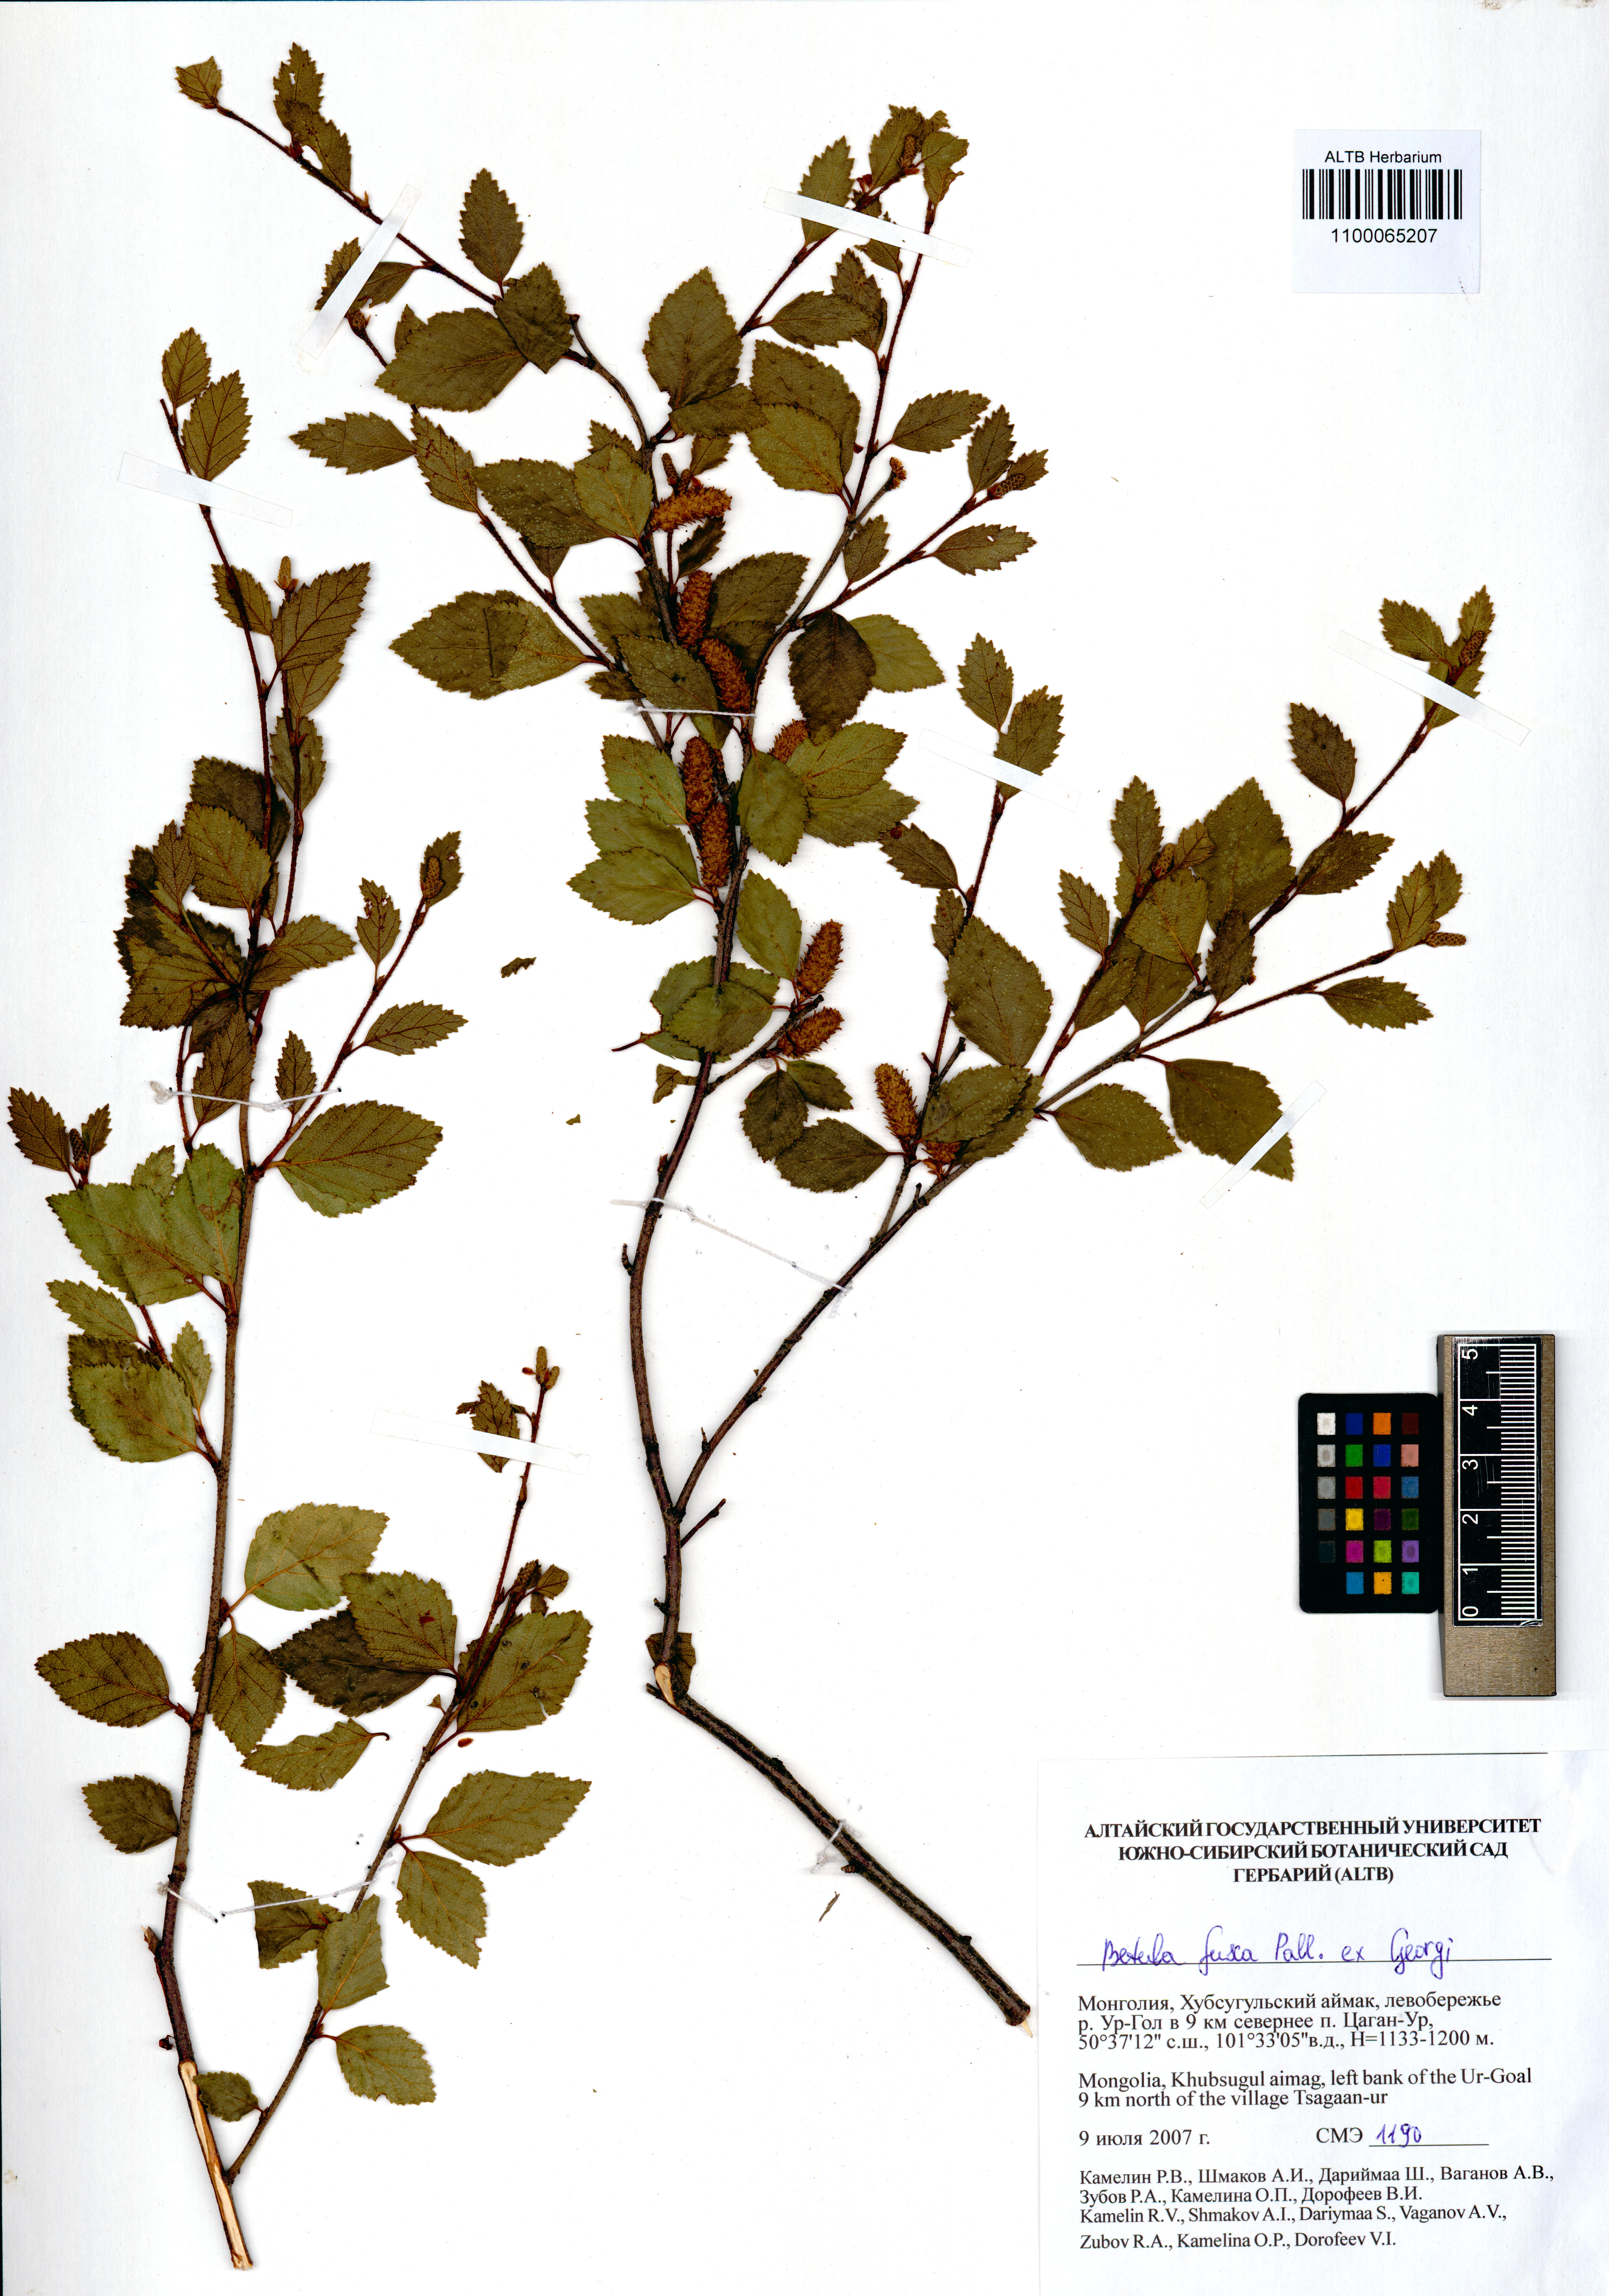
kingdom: Plantae
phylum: Tracheophyta
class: Magnoliopsida
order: Fagales
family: Betulaceae
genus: Betula
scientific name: Betula fruticosa
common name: Japanese bog birch
